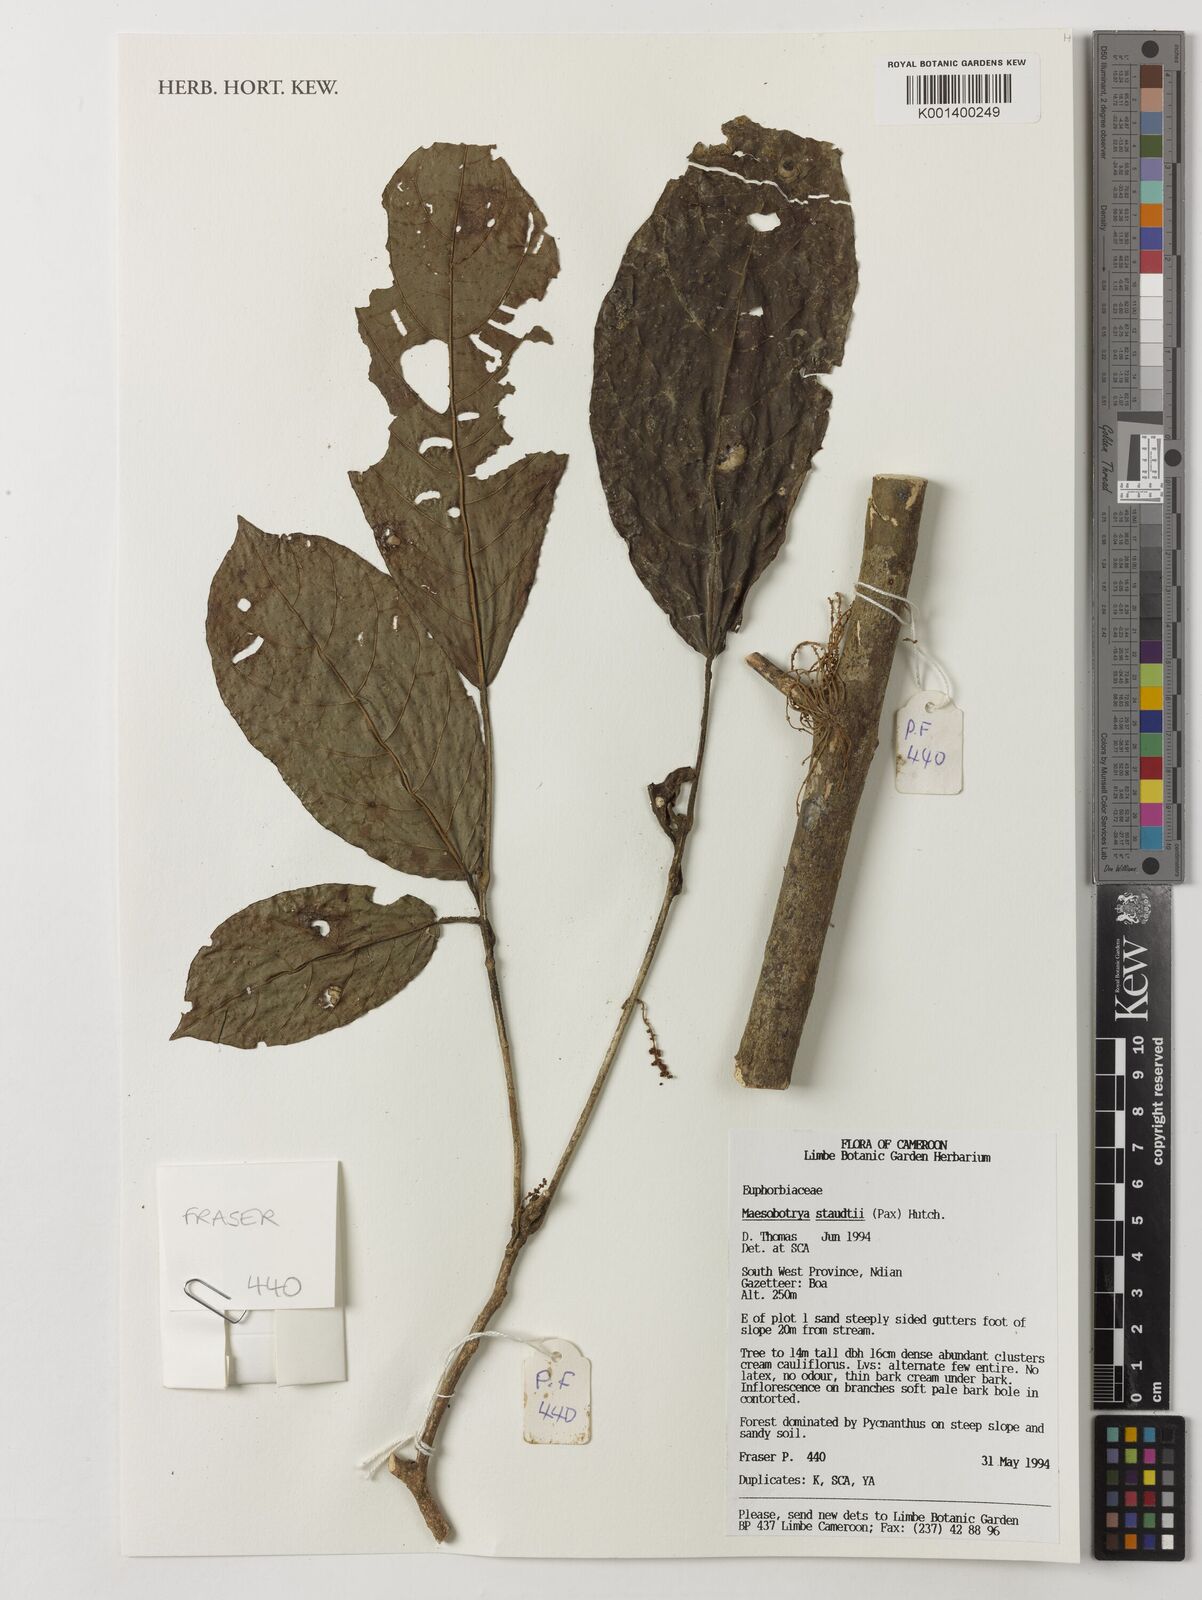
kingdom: Plantae
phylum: Tracheophyta
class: Magnoliopsida
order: Malpighiales
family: Phyllanthaceae
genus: Maesobotrya
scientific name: Maesobotrya staudtii
